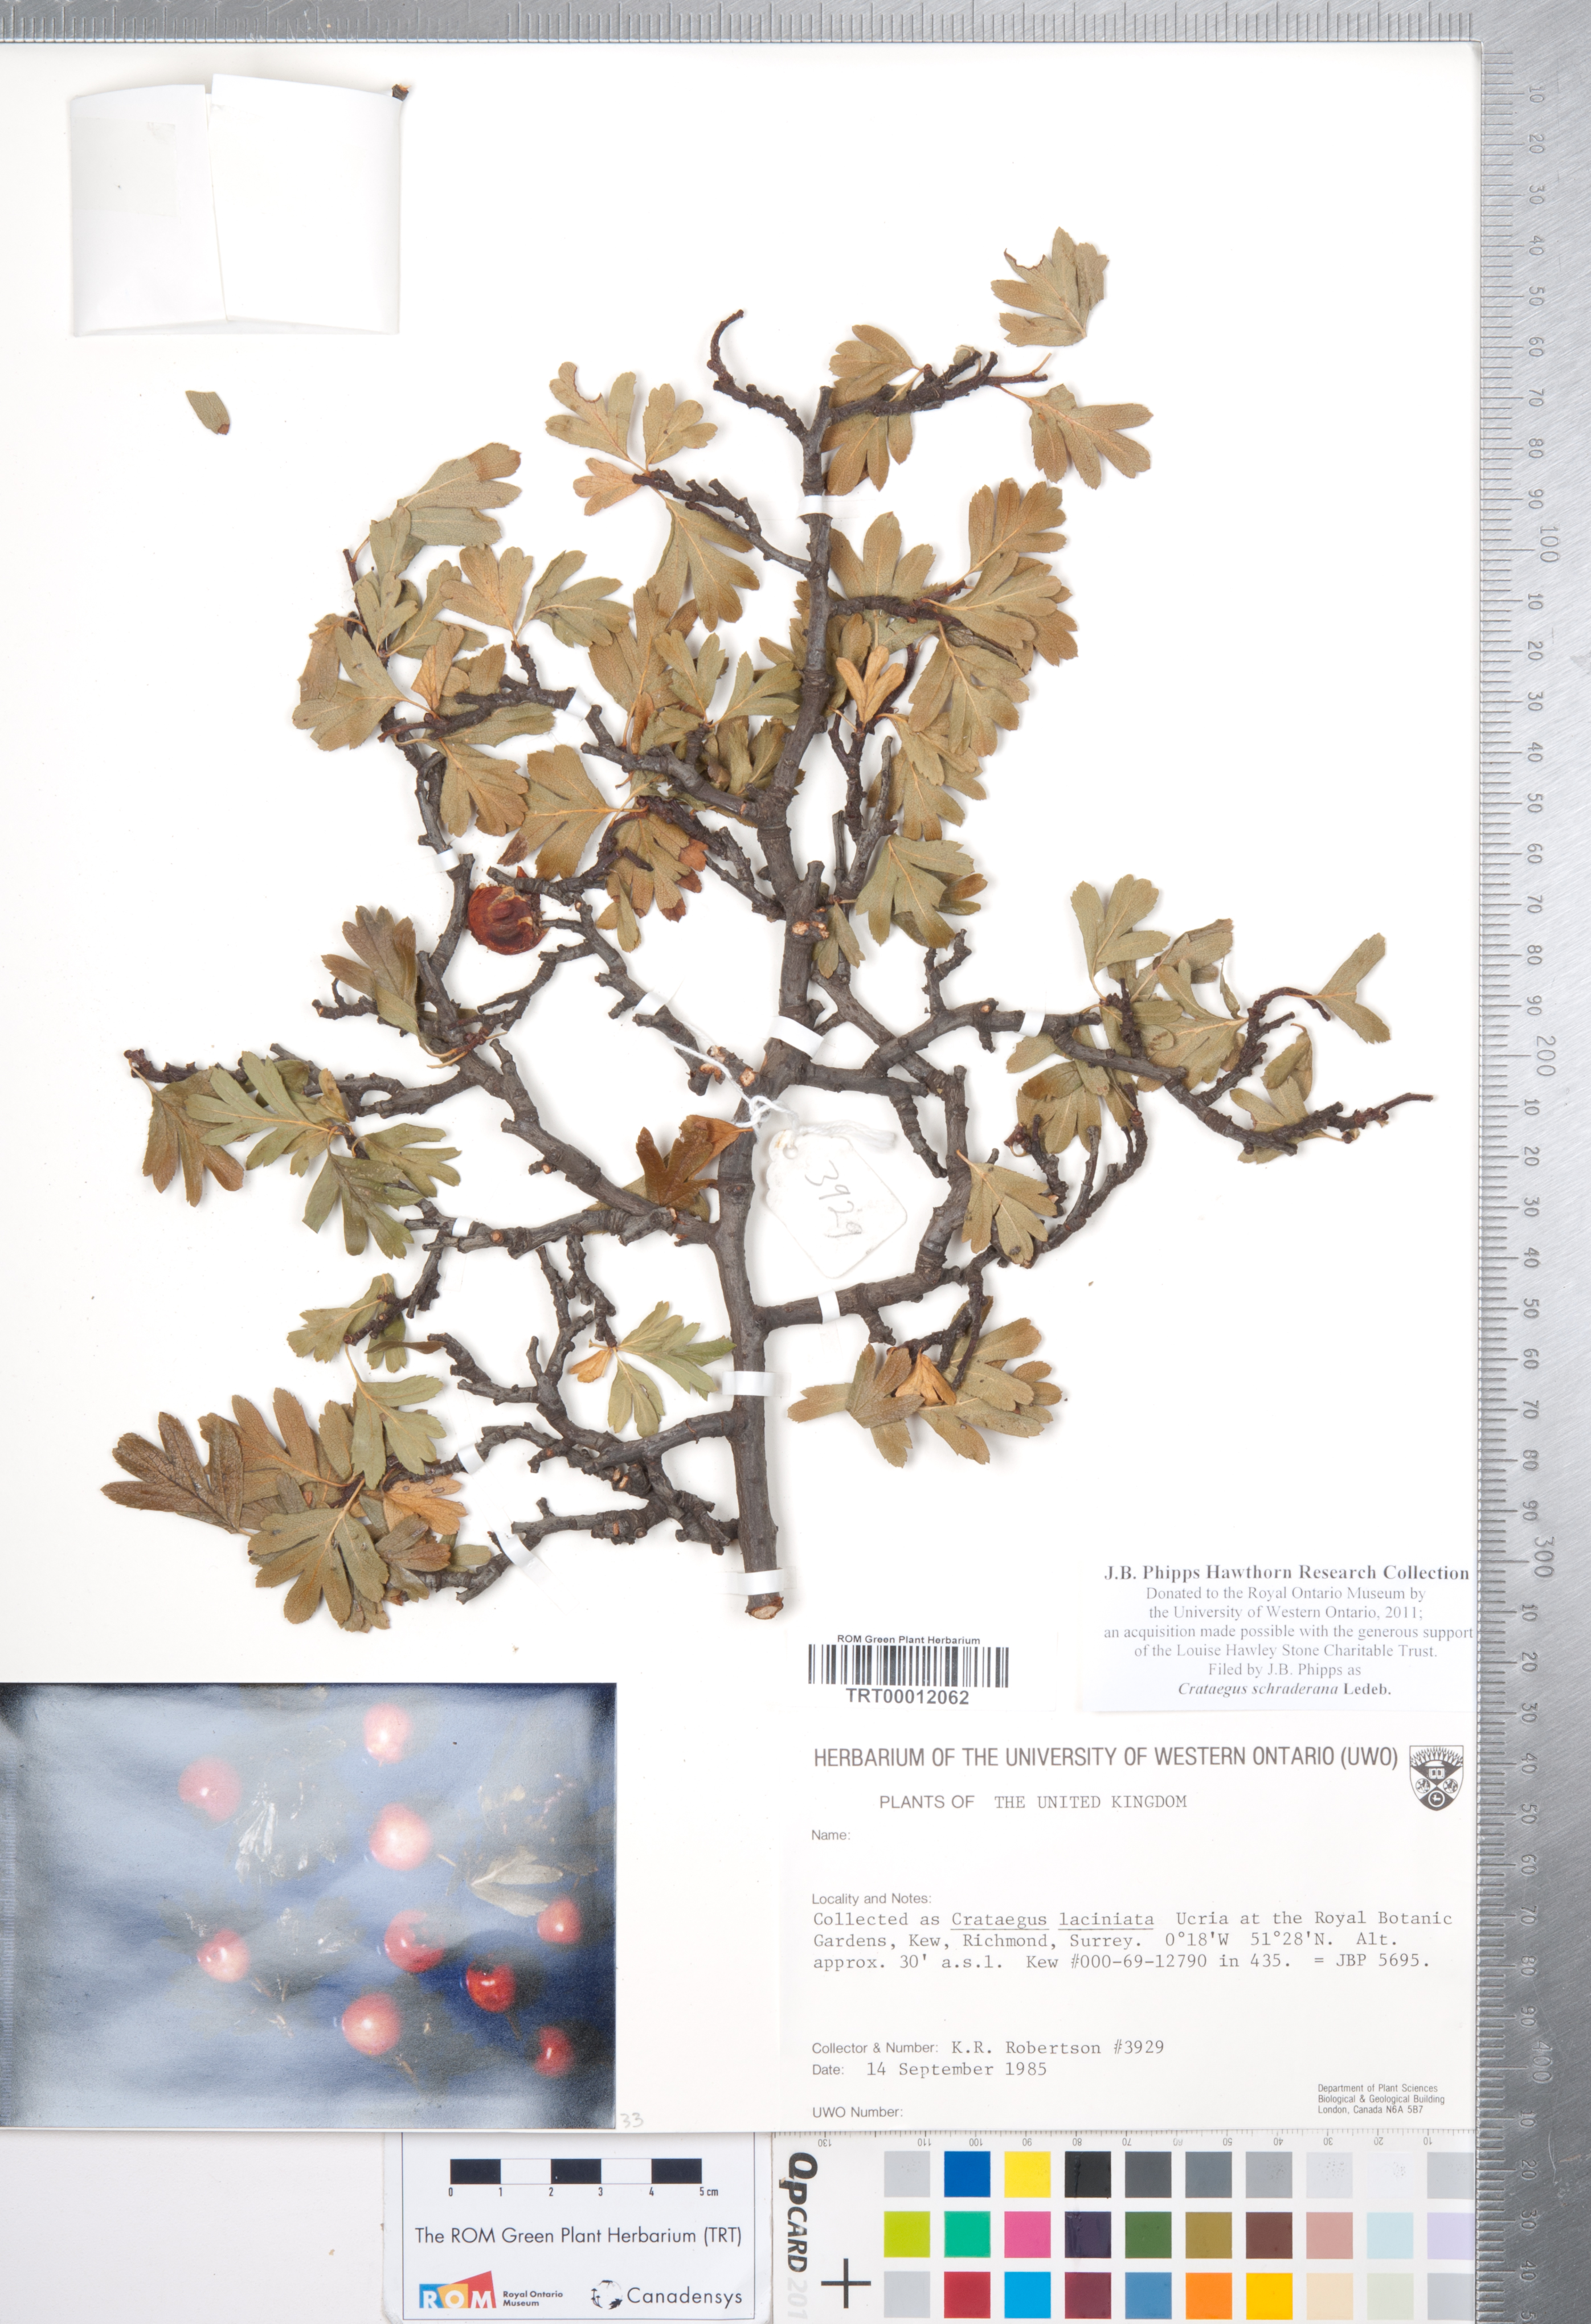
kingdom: Plantae
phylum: Tracheophyta
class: Magnoliopsida
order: Rosales
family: Rosaceae
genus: Crataegus
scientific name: Crataegus orientalis
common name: Oriental hawthorn
